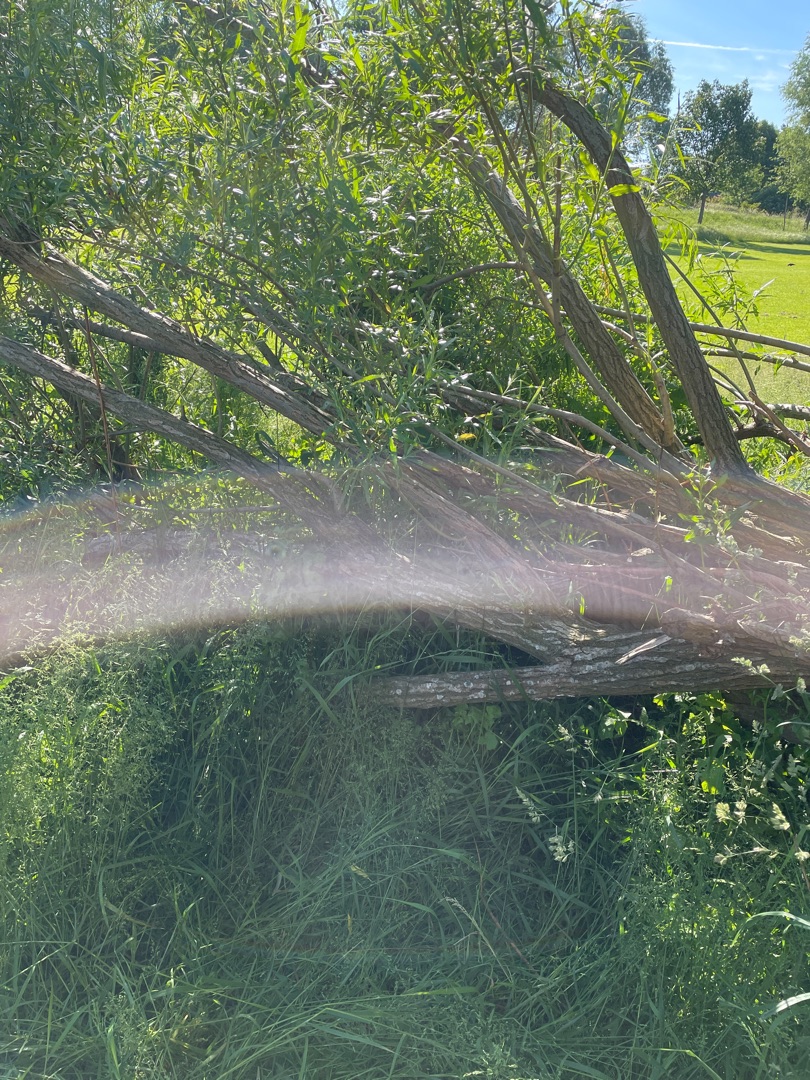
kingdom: Plantae
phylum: Tracheophyta
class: Magnoliopsida
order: Malpighiales
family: Salicaceae
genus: Salix
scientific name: Salix
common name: Pileslægten
